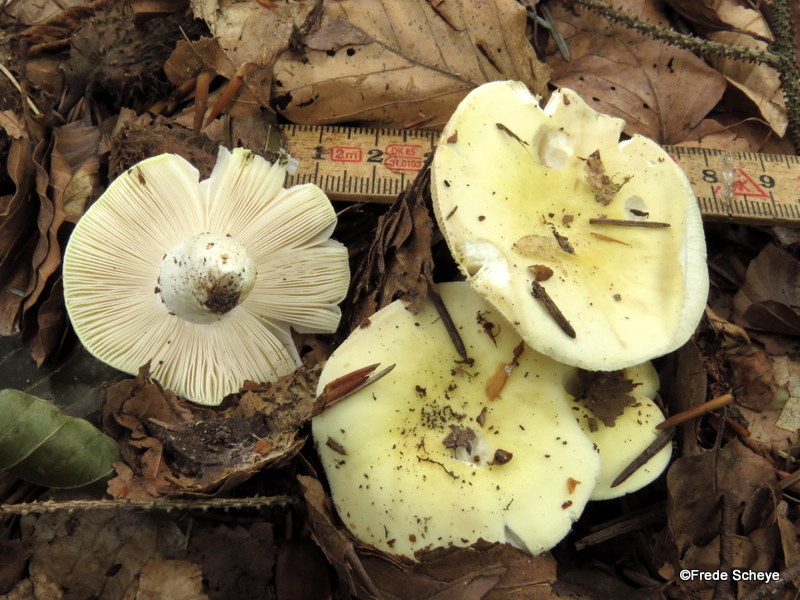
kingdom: Fungi
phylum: Basidiomycota
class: Agaricomycetes
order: Russulales
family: Russulaceae
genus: Russula
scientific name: Russula violeipes
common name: ferskengul skørhat
